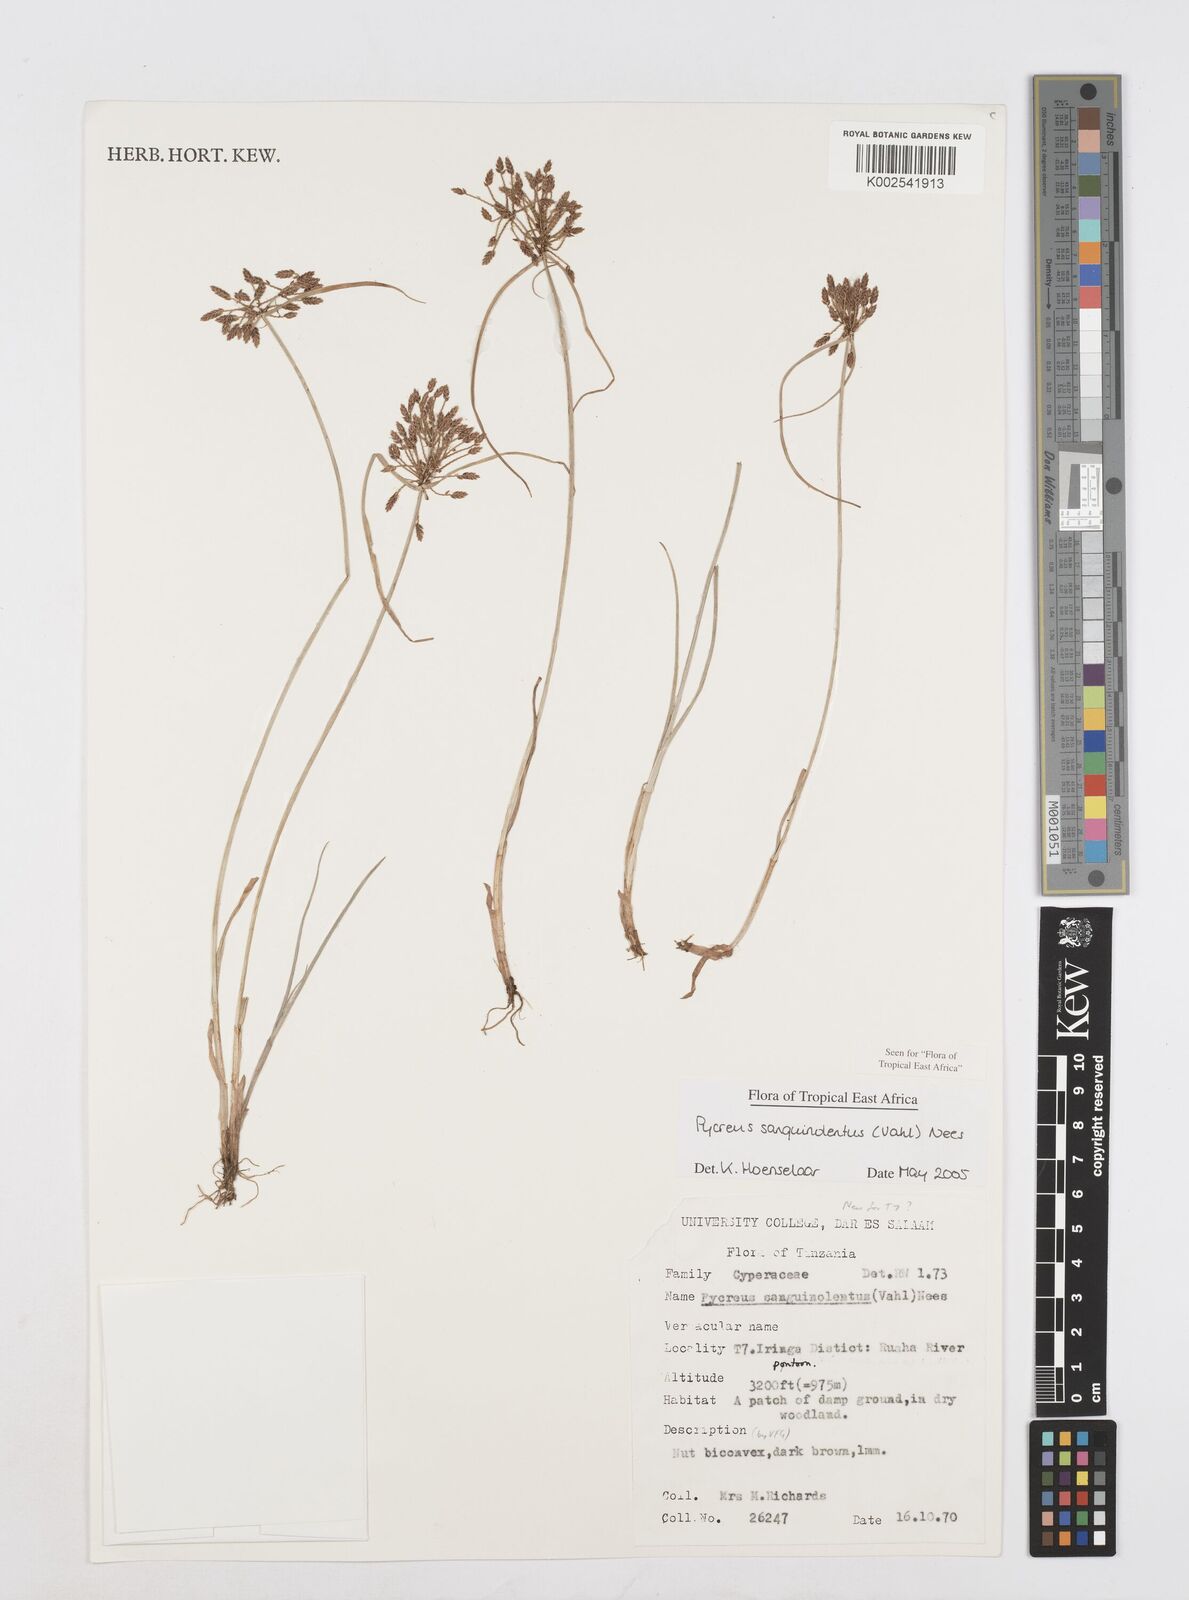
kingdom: Plantae
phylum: Tracheophyta
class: Liliopsida
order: Poales
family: Cyperaceae
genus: Cyperus
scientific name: Cyperus sanguinolentus
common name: Purpleglume flatsedge
